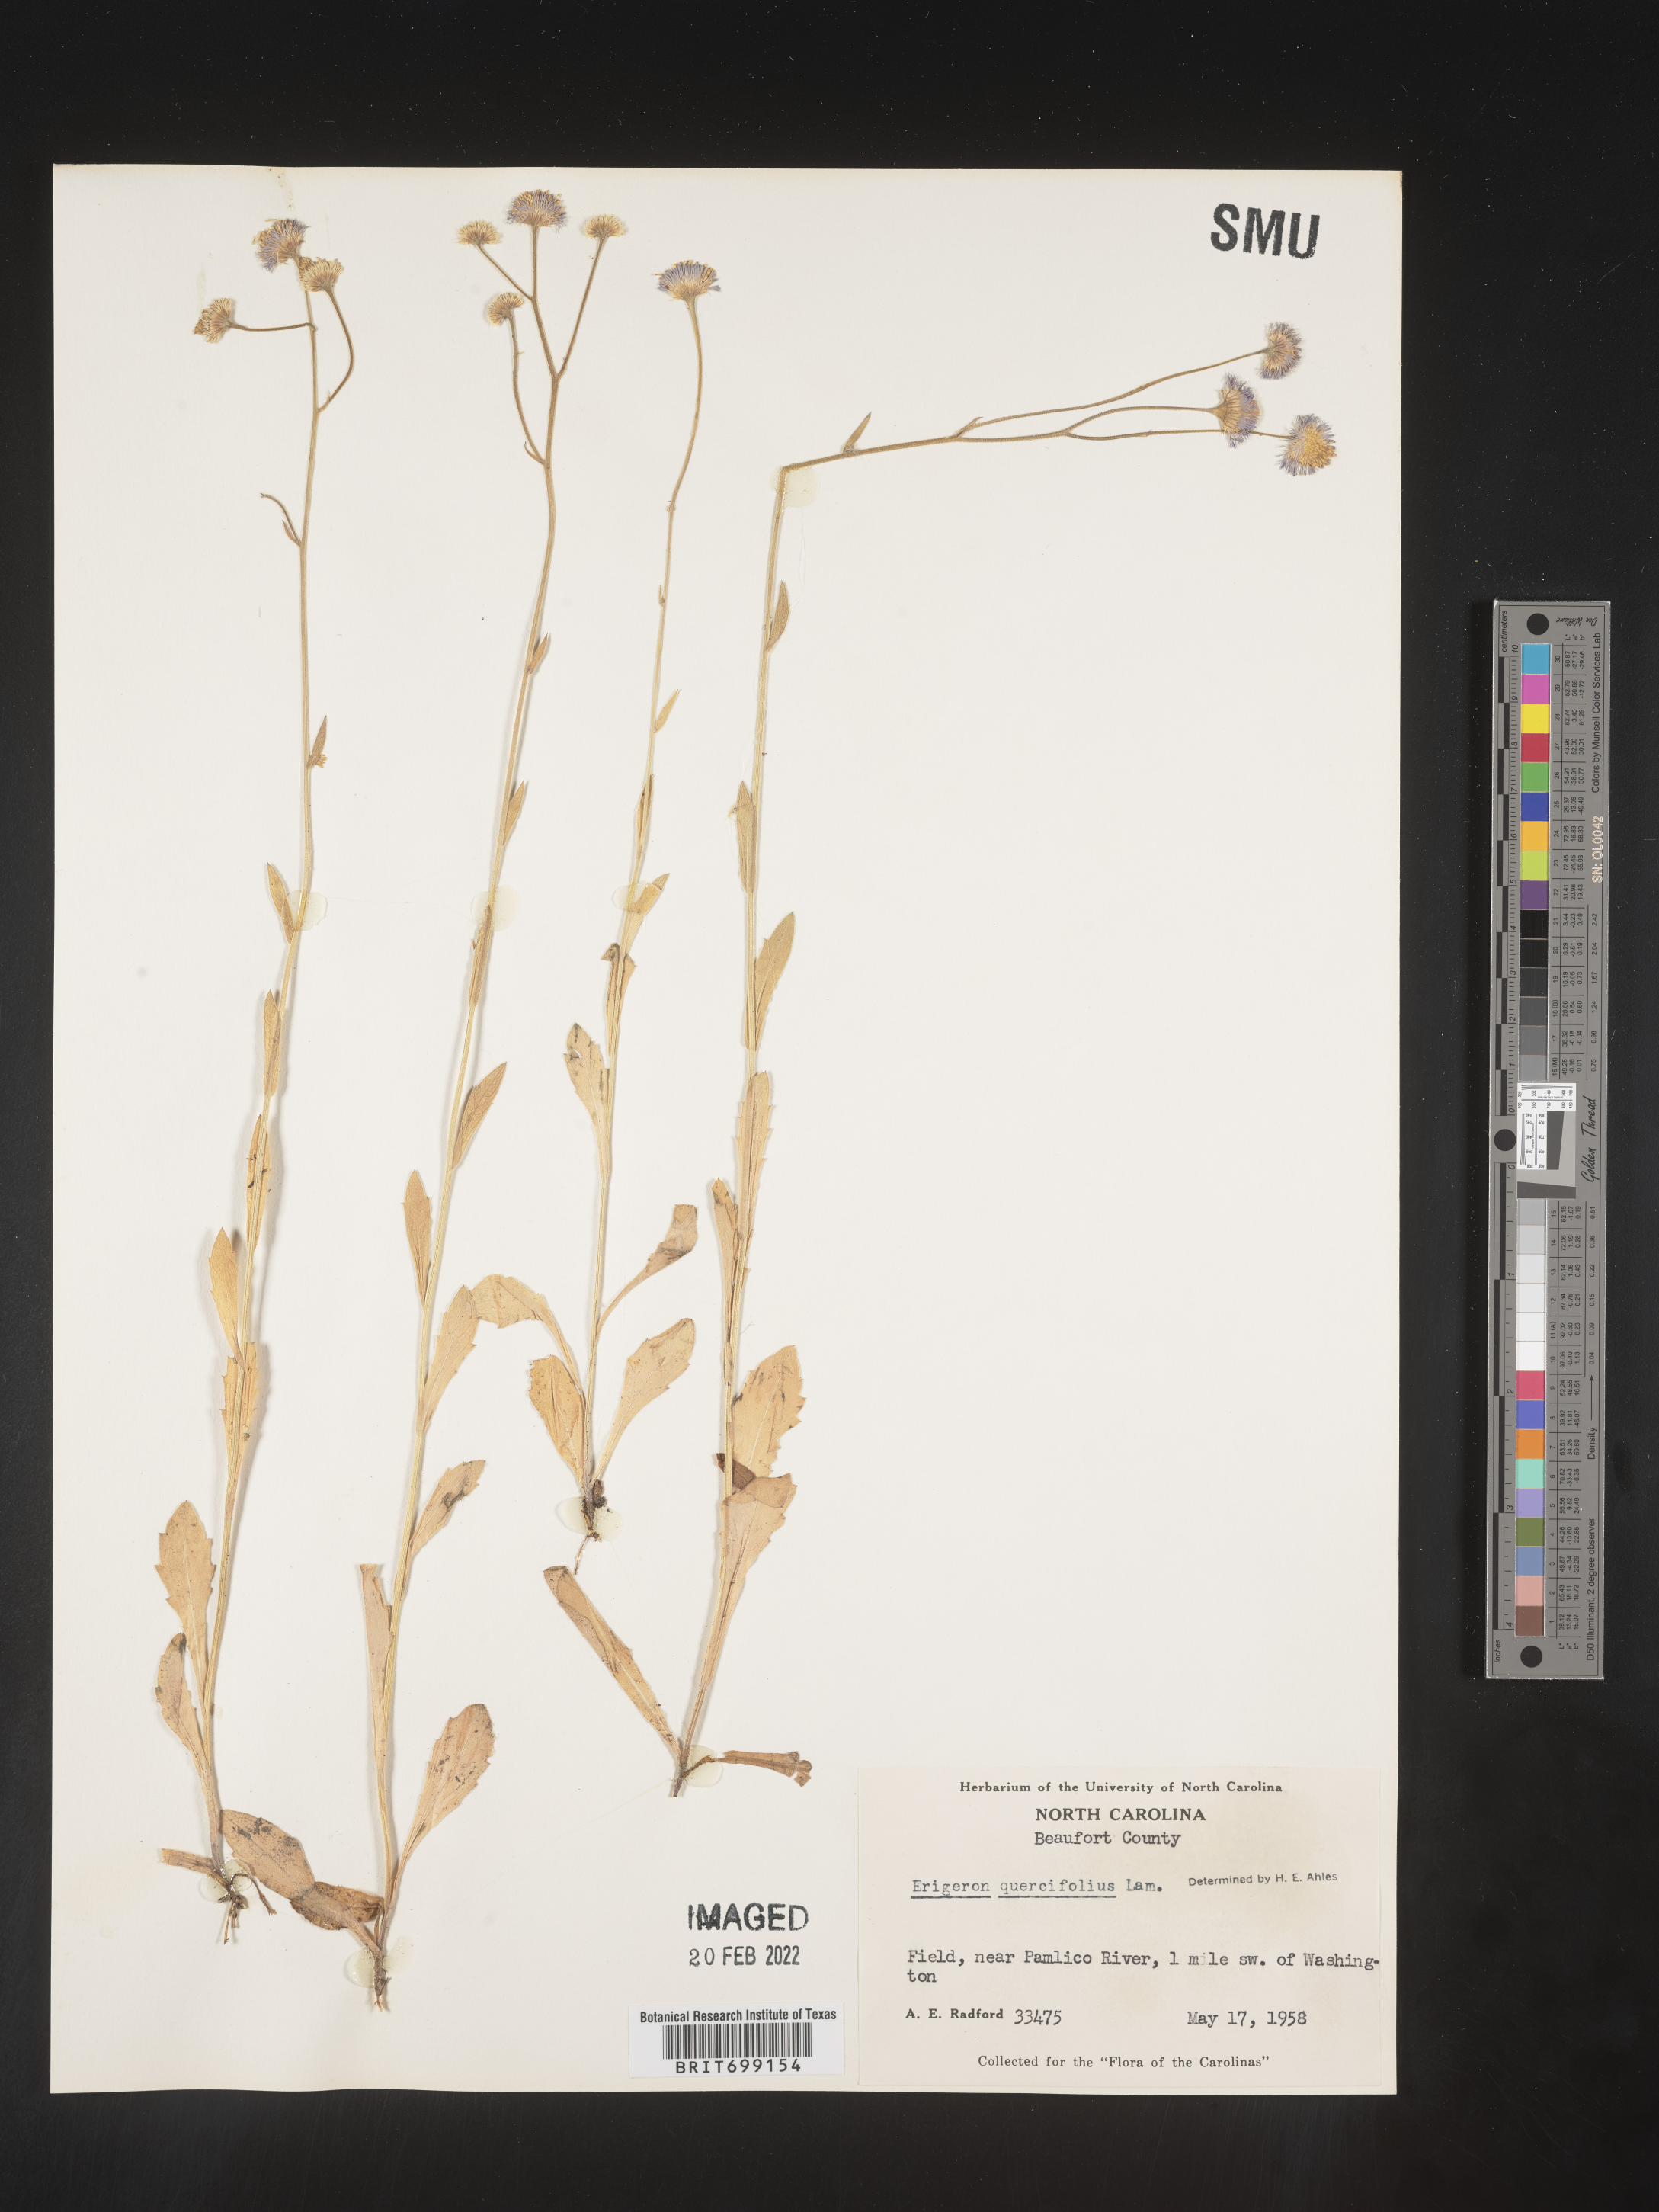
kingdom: Plantae
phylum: Tracheophyta
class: Magnoliopsida
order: Asterales
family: Asteraceae
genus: Erigeron
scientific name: Erigeron quercifolius
